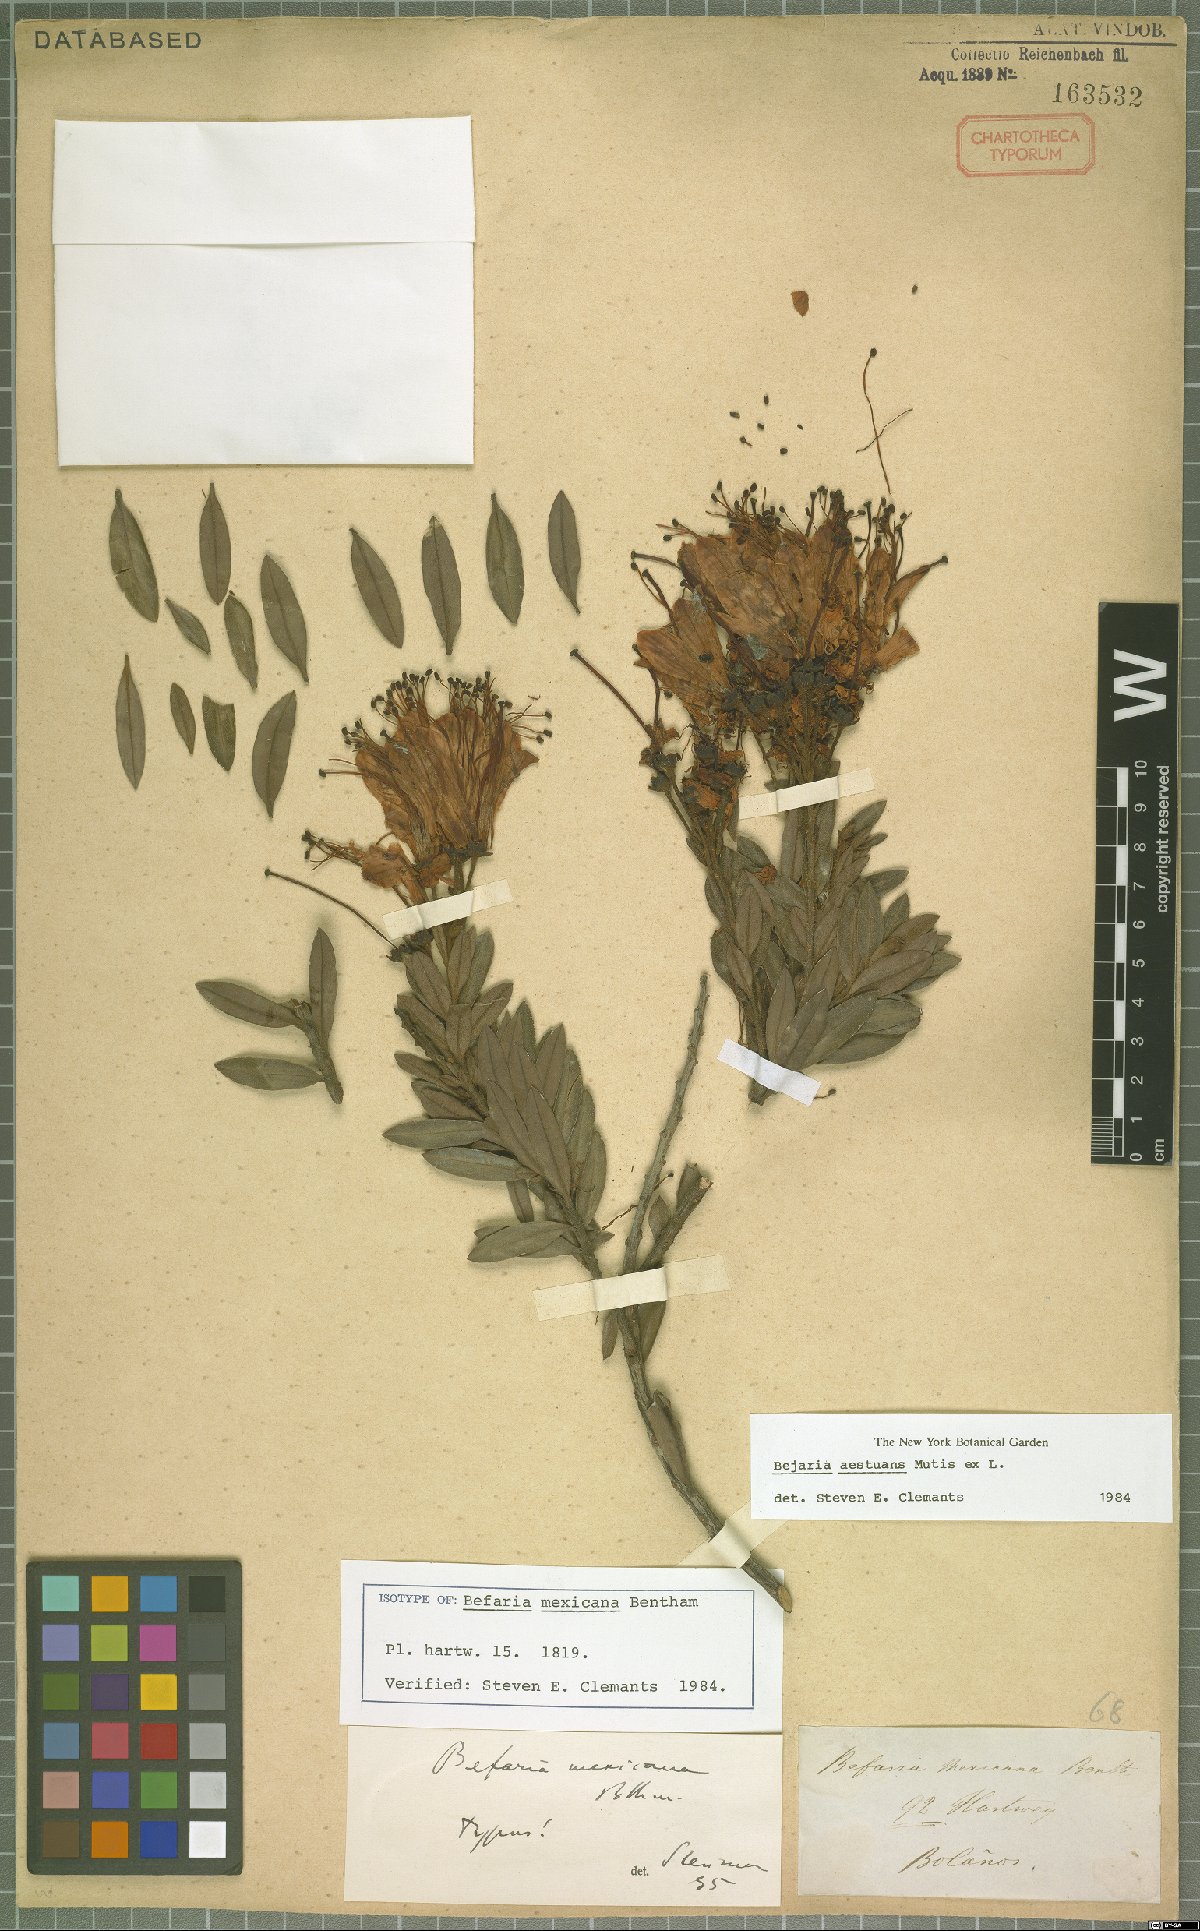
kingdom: Plantae
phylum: Tracheophyta
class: Magnoliopsida
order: Ericales
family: Ericaceae
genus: Bejaria
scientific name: Bejaria aestuans
